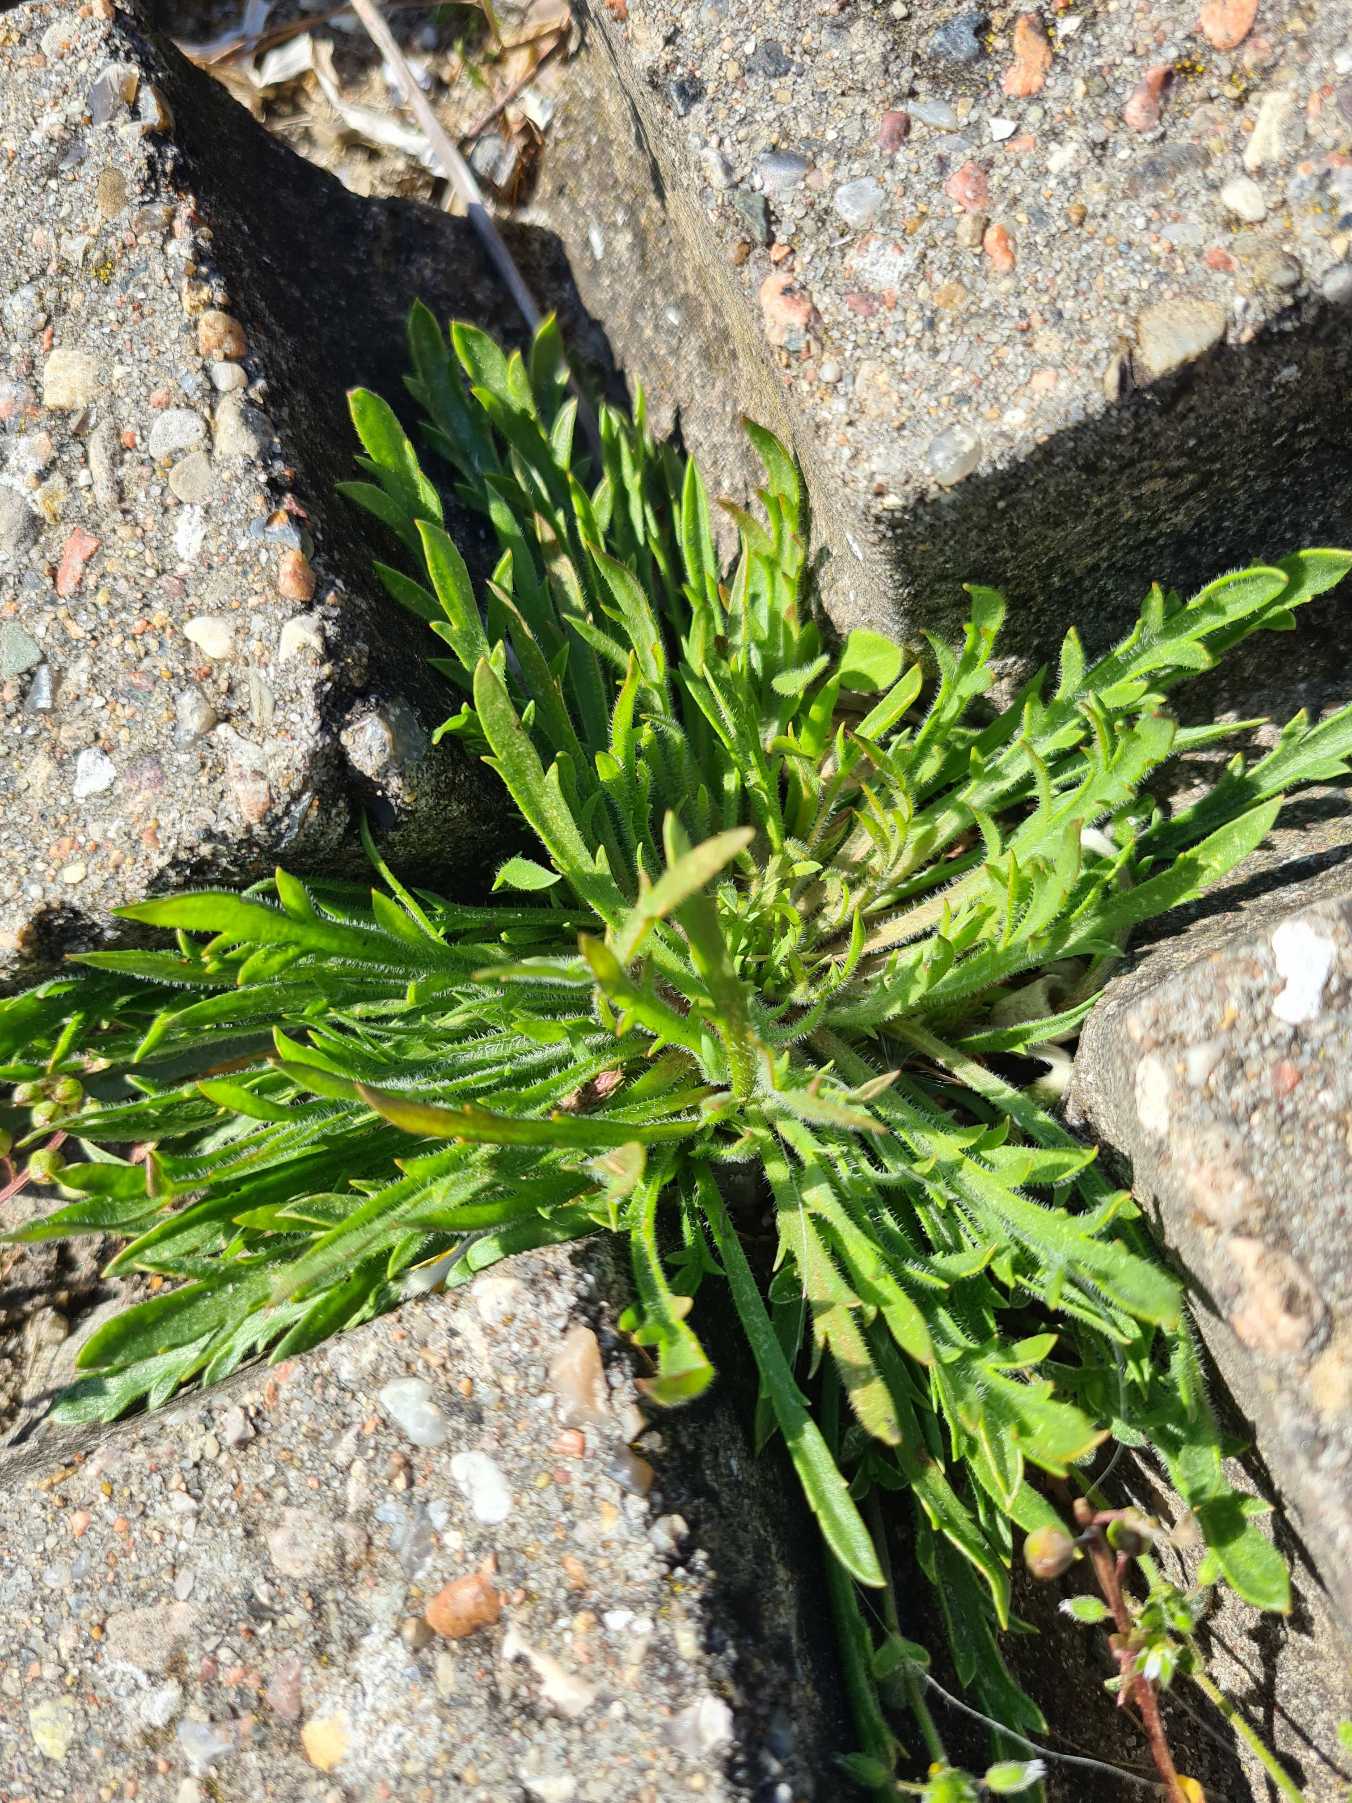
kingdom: Plantae
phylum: Tracheophyta
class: Magnoliopsida
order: Lamiales
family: Plantaginaceae
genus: Plantago
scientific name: Plantago coronopus
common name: Fliget vejbred
